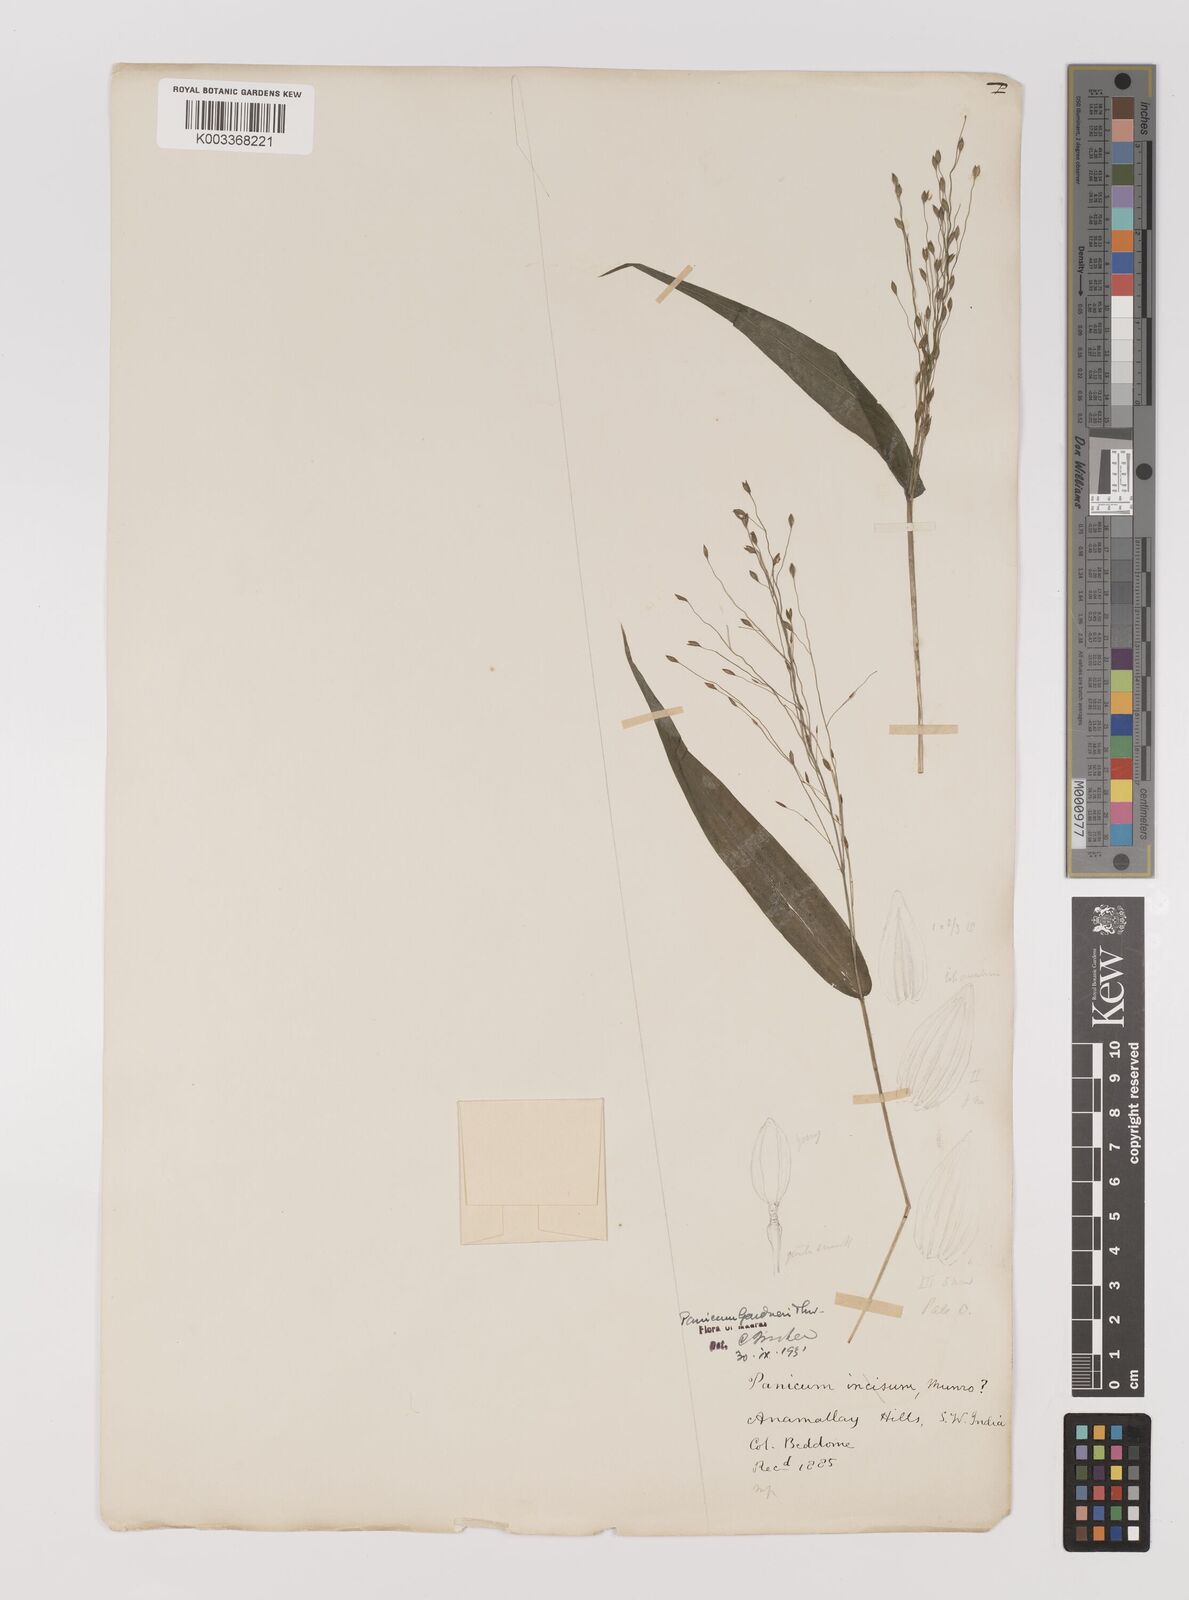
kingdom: Plantae
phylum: Tracheophyta
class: Liliopsida
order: Poales
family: Poaceae
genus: Panicum
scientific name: Panicum gardneri
